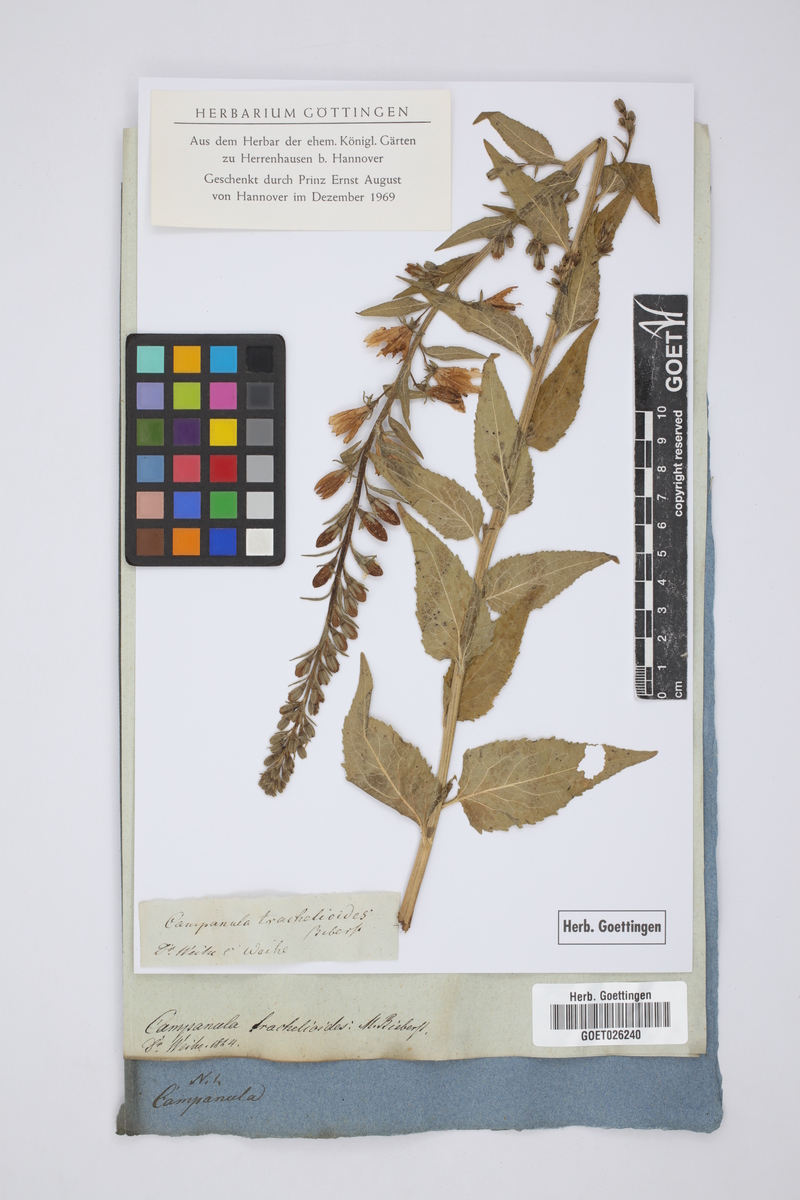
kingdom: Plantae
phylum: Tracheophyta
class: Magnoliopsida
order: Asterales
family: Campanulaceae
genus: Campanula
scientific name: Campanula rapunculoides
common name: Creeping bellflower
